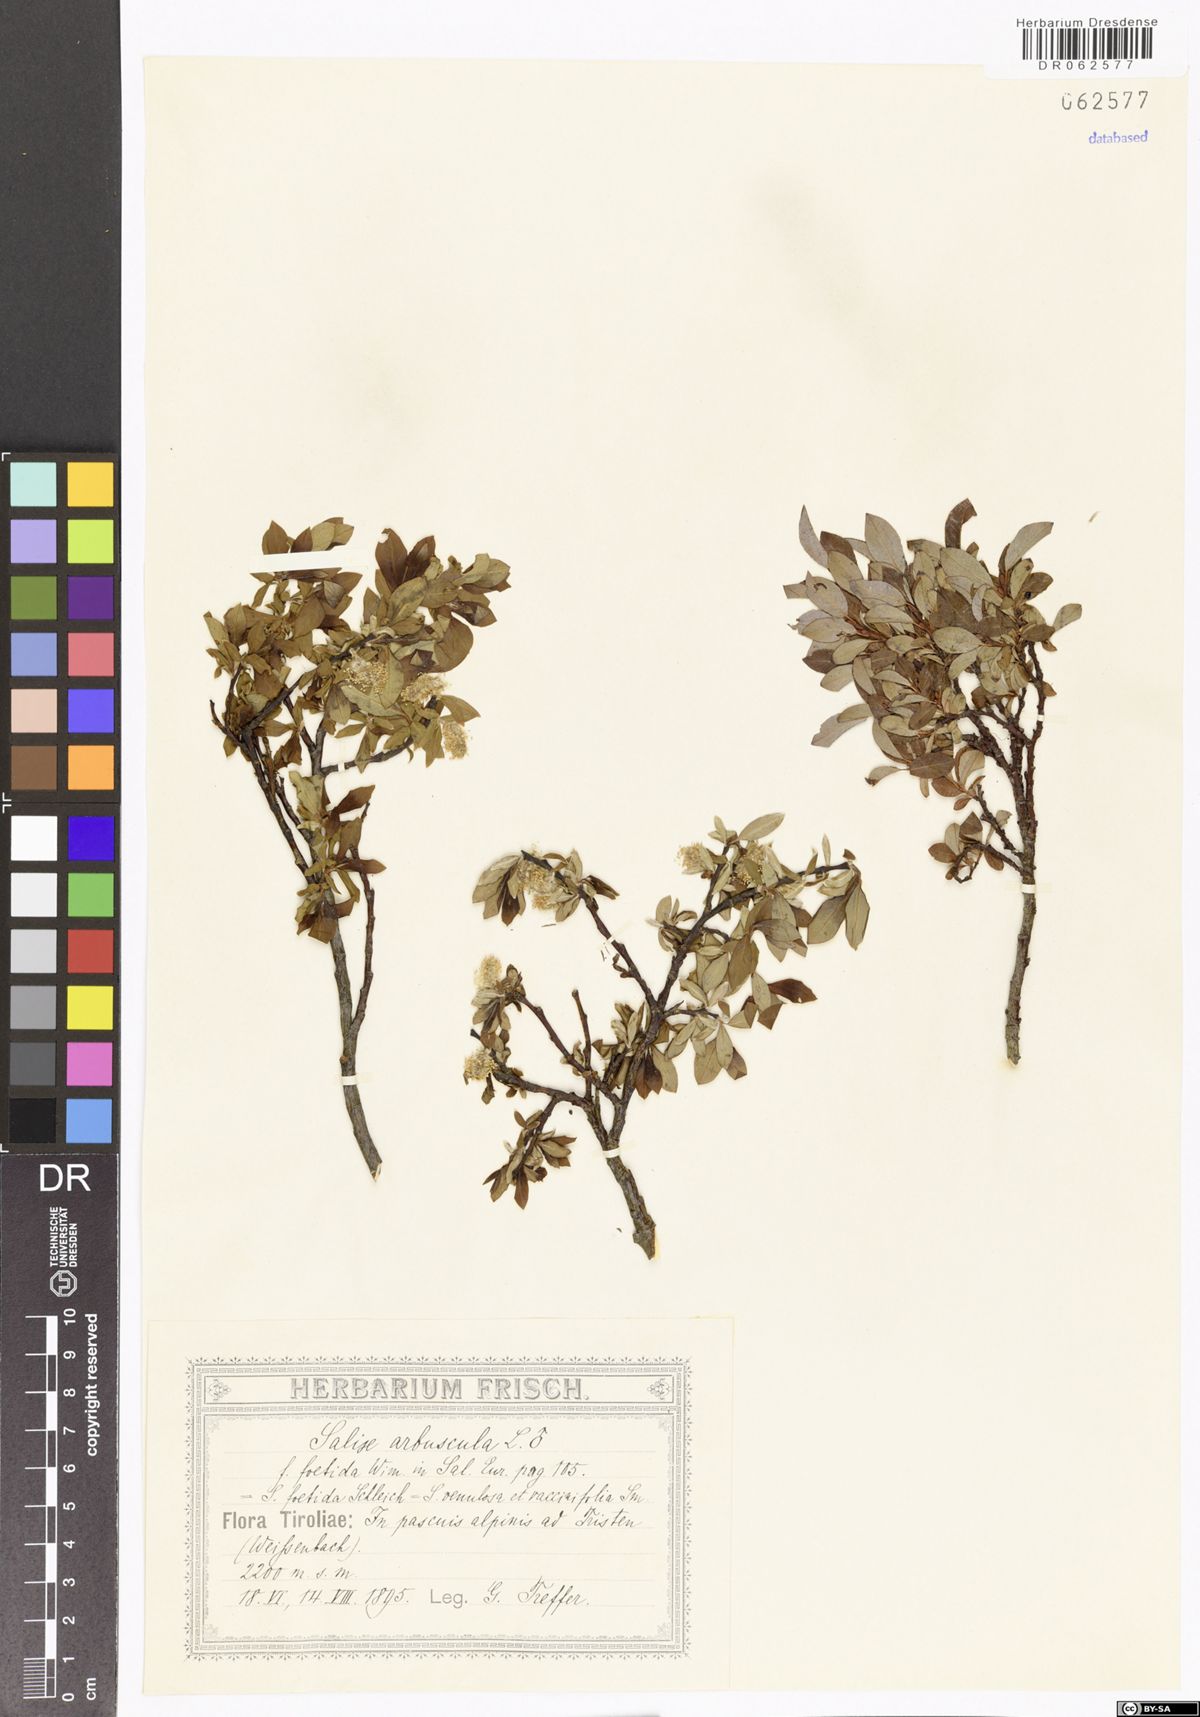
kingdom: Plantae
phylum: Tracheophyta
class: Magnoliopsida
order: Malpighiales
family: Salicaceae
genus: Salix
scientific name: Salix arbuscula
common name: Mountain willow
